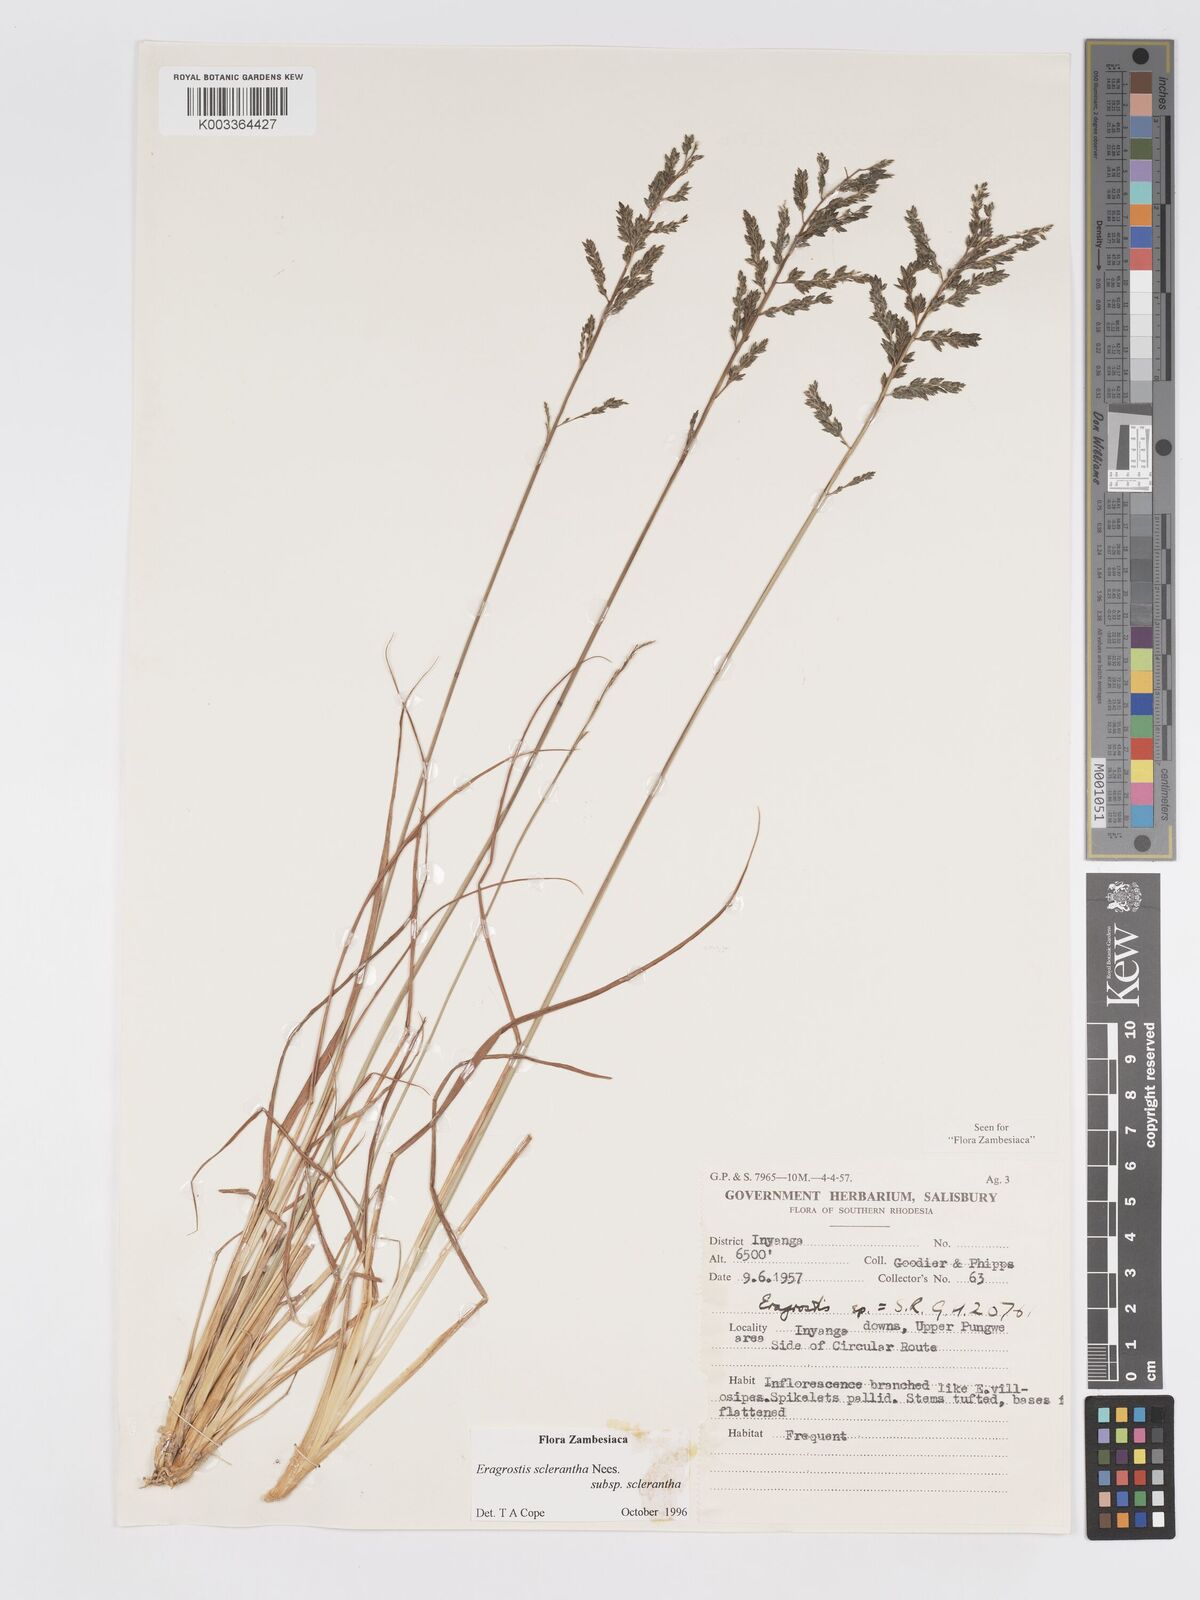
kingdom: Plantae
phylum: Tracheophyta
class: Liliopsida
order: Poales
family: Poaceae
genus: Eragrostis
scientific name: Eragrostis sclerantha
